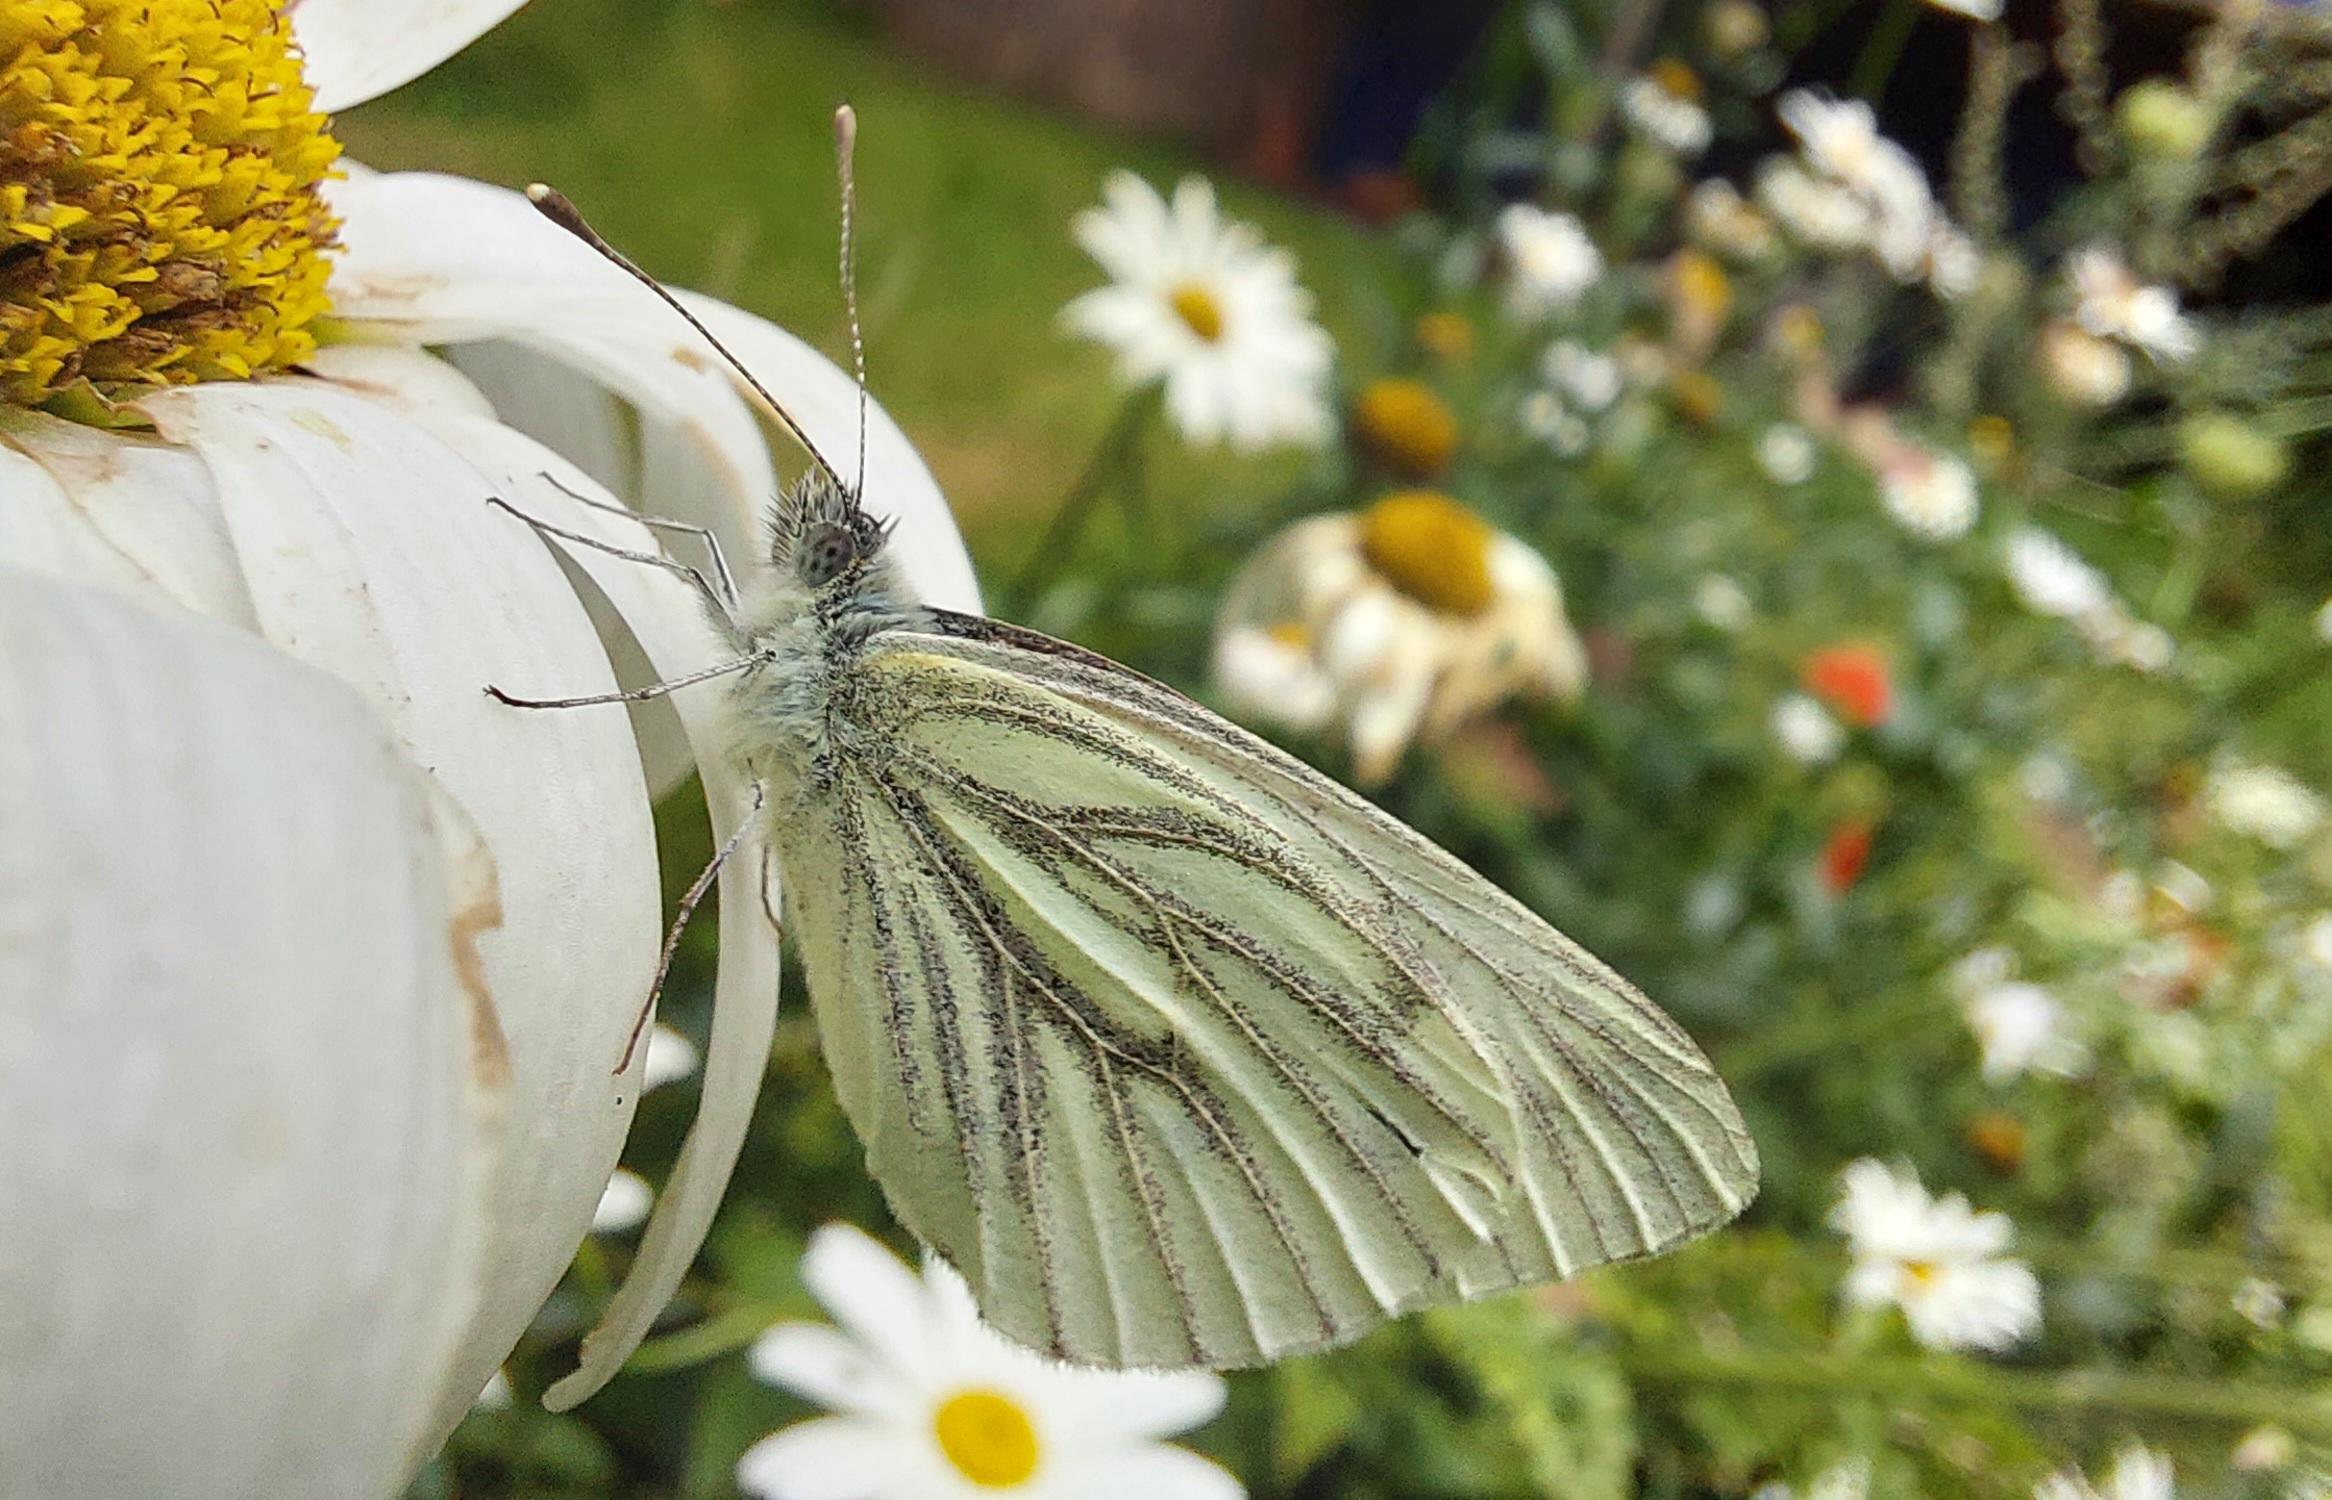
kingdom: Animalia
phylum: Arthropoda
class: Insecta
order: Lepidoptera
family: Pieridae
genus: Pieris
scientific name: Pieris napi
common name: Grønåret kålsommerfugl
